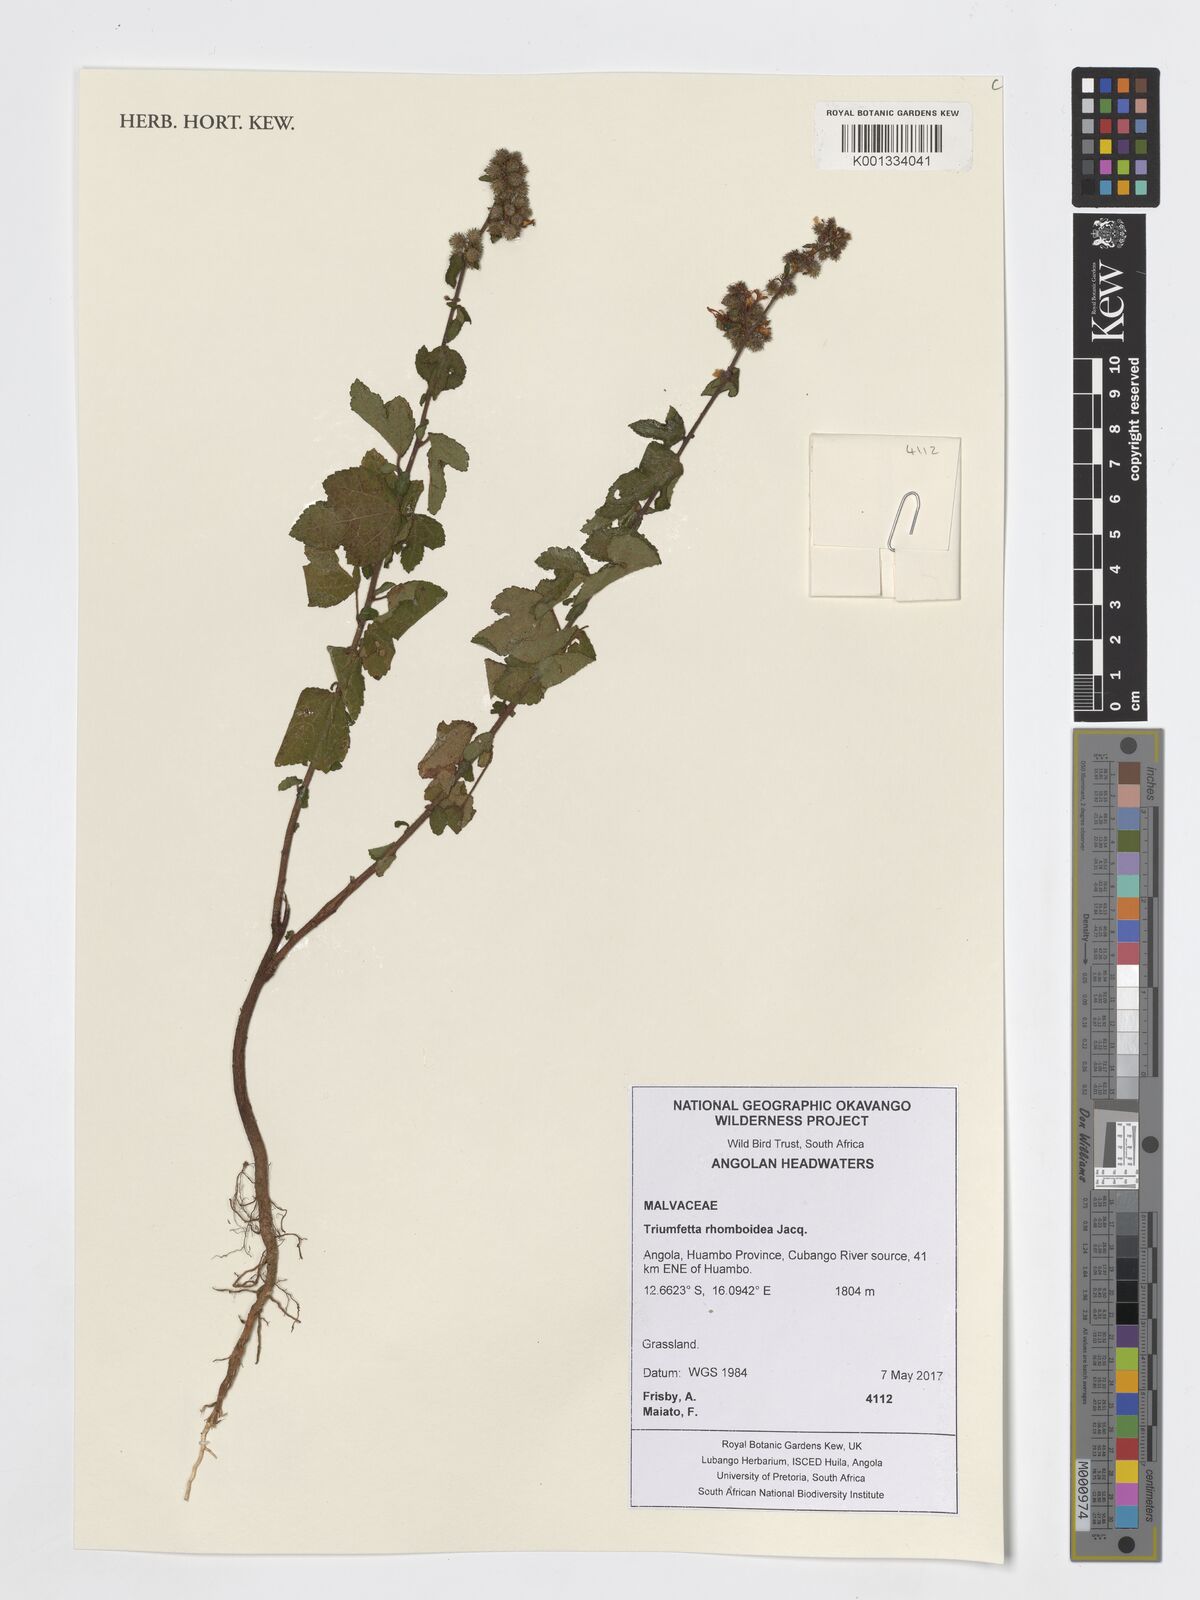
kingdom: Plantae
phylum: Tracheophyta
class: Magnoliopsida
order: Malvales
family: Malvaceae
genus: Triumfetta
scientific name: Triumfetta rhomboidea
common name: Diamond burbark
